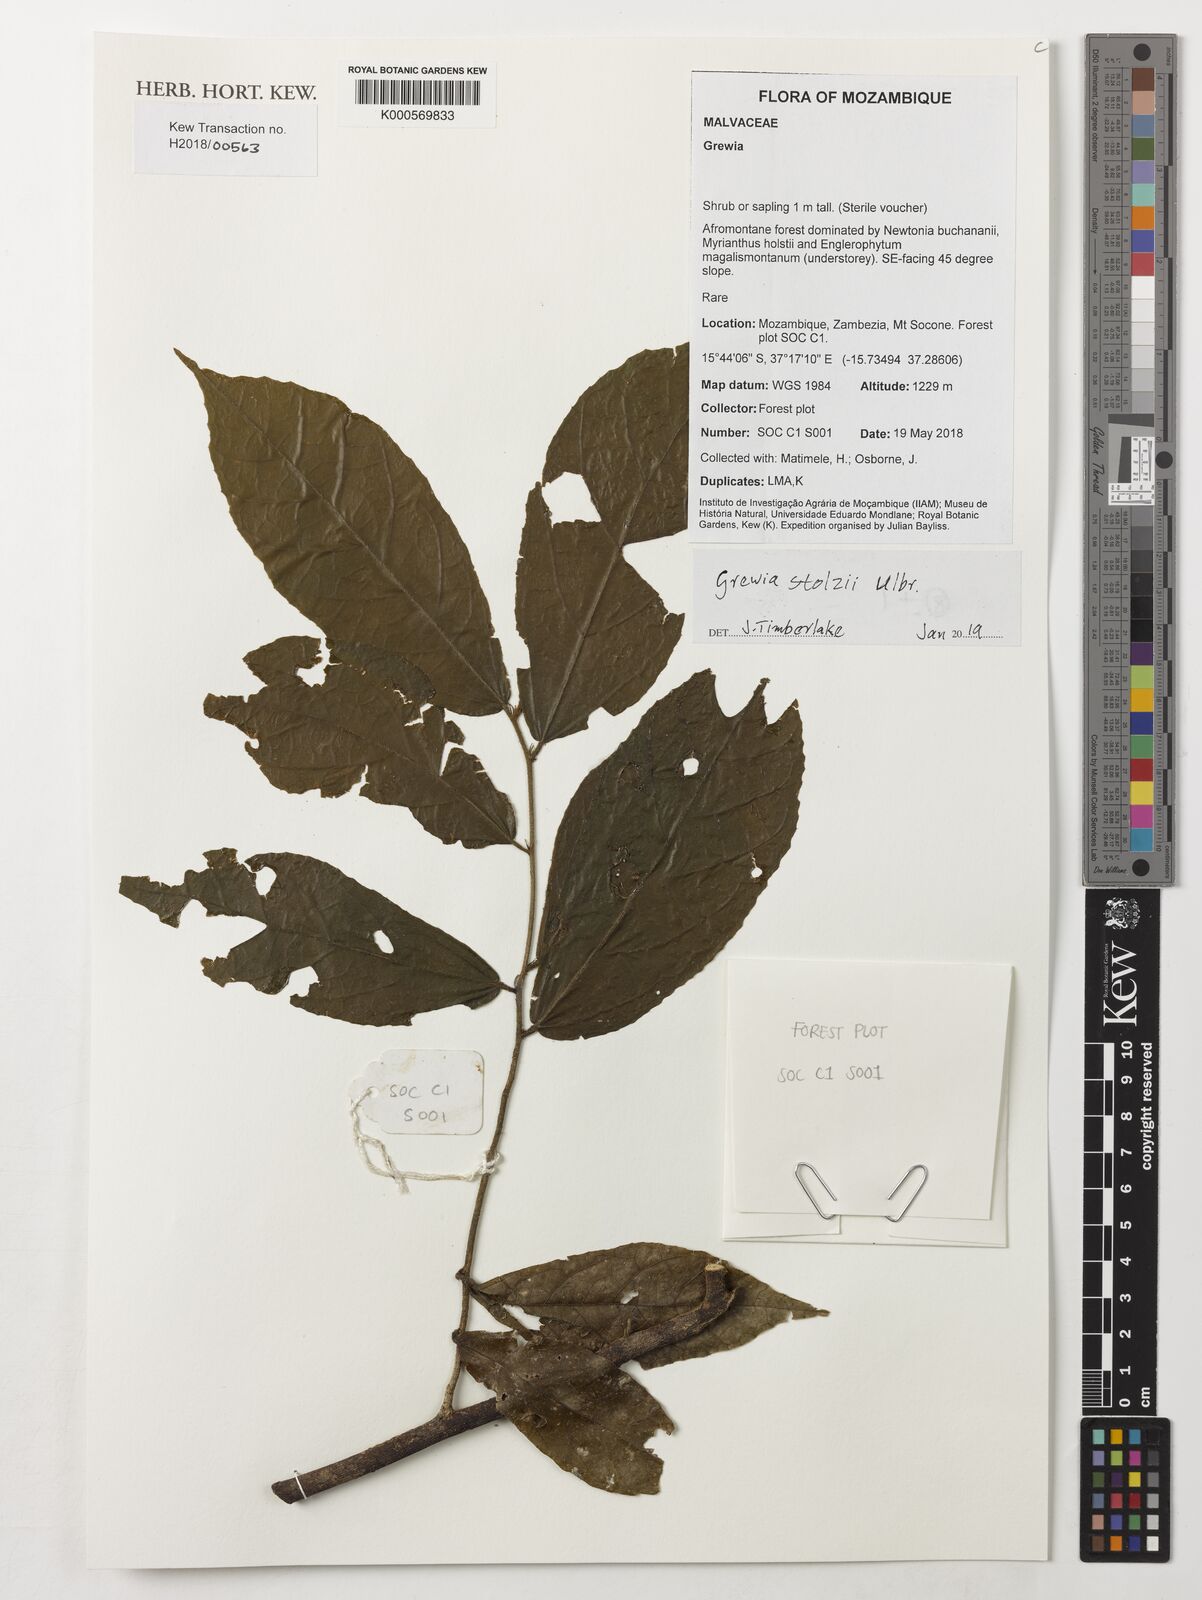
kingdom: Plantae
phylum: Tracheophyta
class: Magnoliopsida
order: Malvales
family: Malvaceae
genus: Grewia
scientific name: Grewia stolzii
